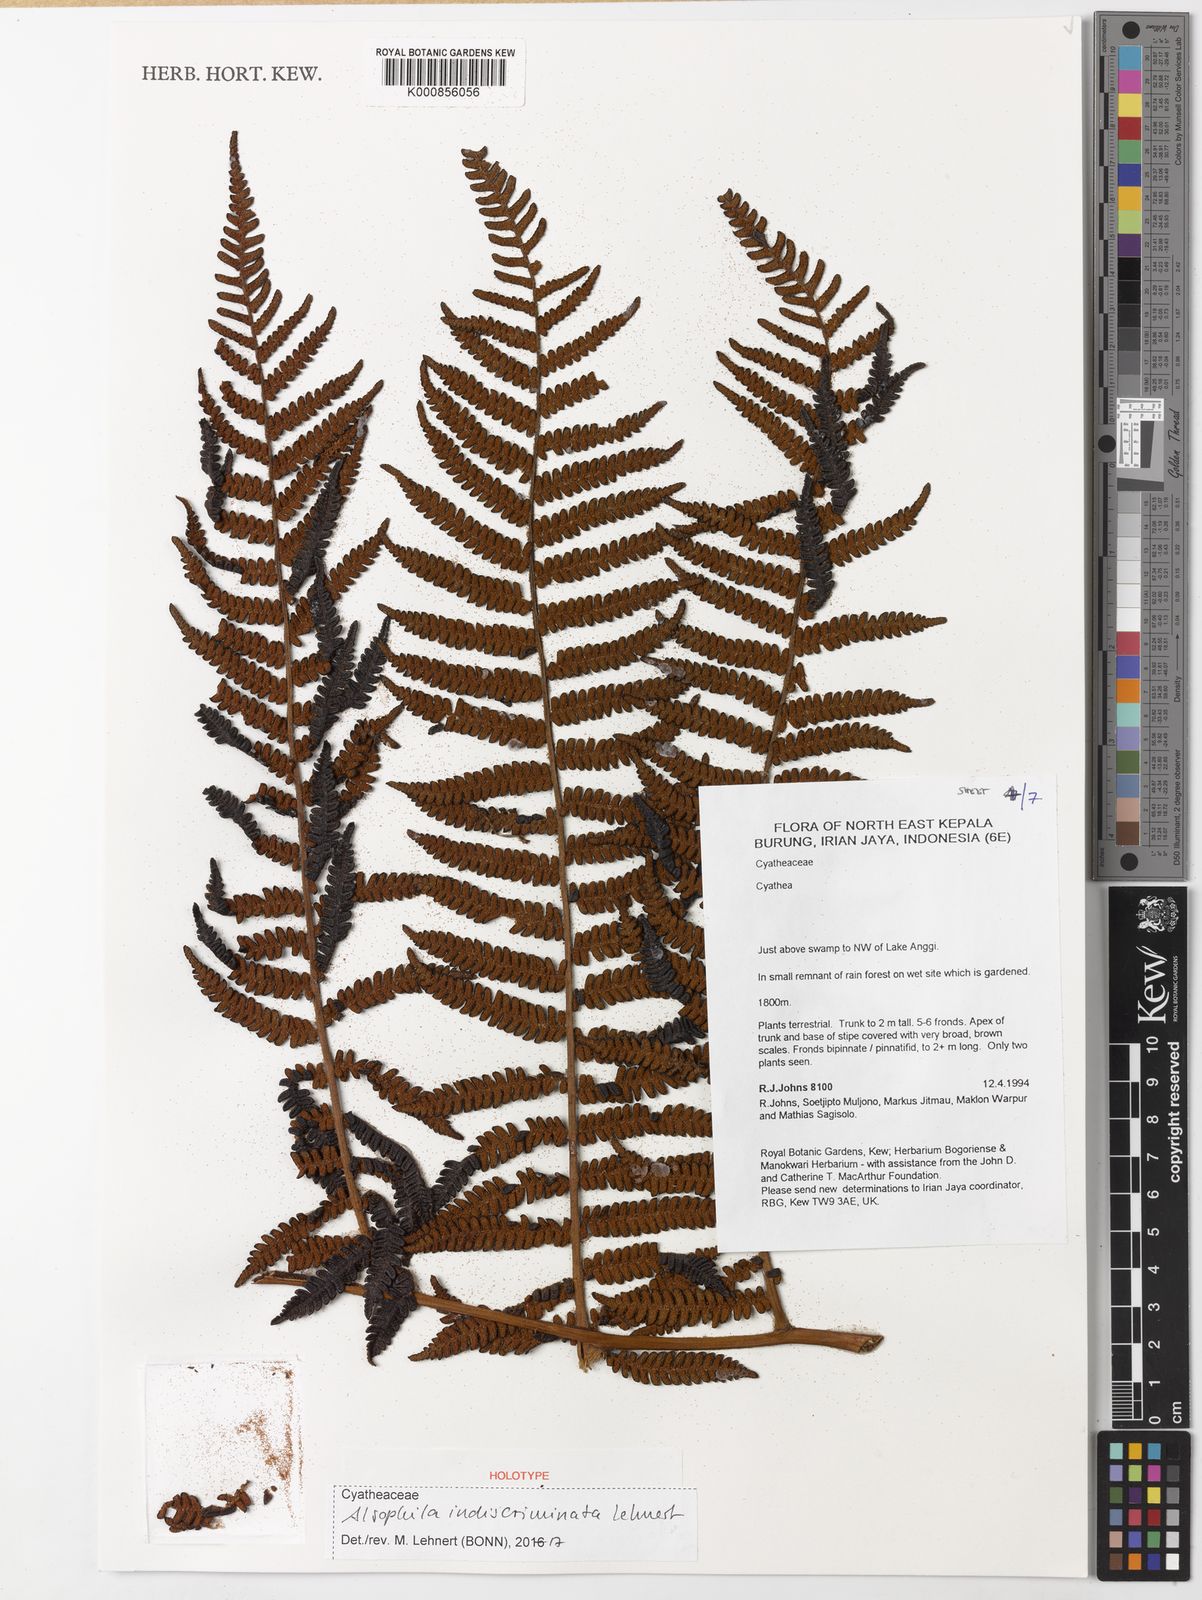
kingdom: Plantae
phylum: Tracheophyta
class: Polypodiopsida
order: Cyatheales
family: Cyatheaceae
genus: Alsophila
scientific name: Alsophila indiscriminata
